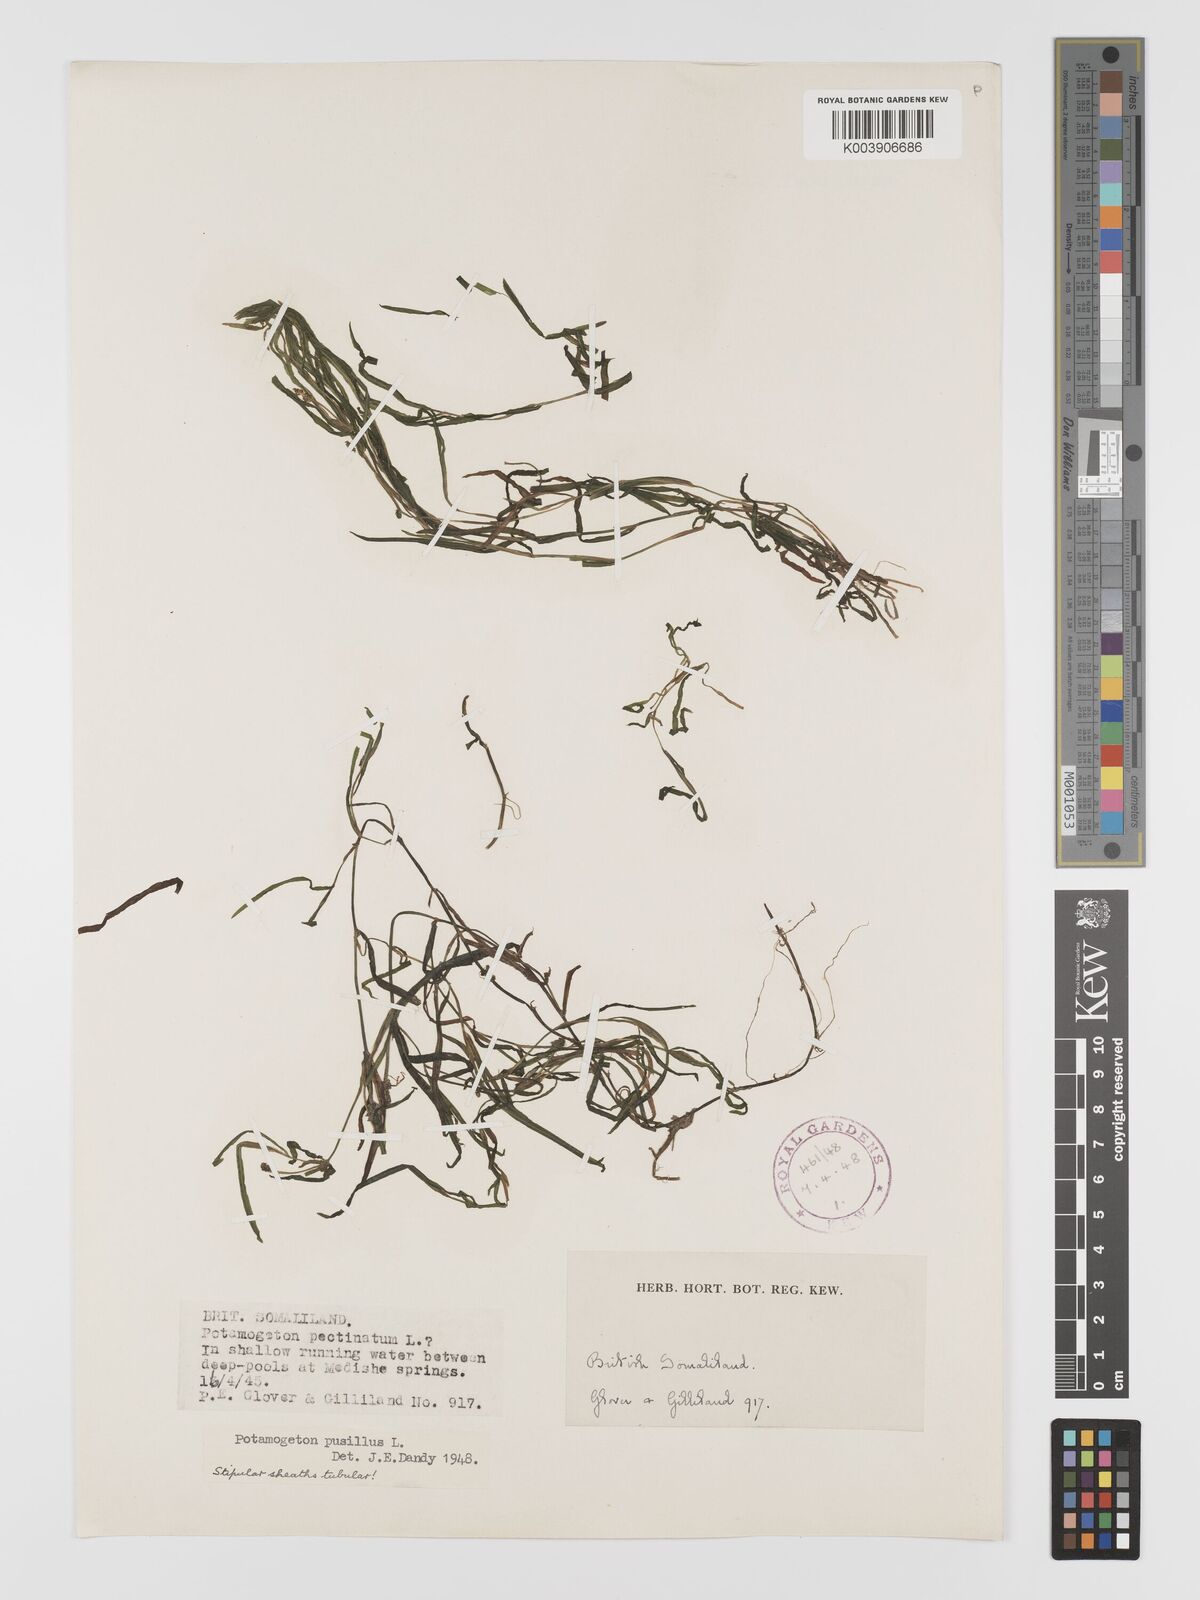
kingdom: Plantae
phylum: Tracheophyta
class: Liliopsida
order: Alismatales
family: Potamogetonaceae
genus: Potamogeton
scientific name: Potamogeton pusillus
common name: Lesser pondweed
